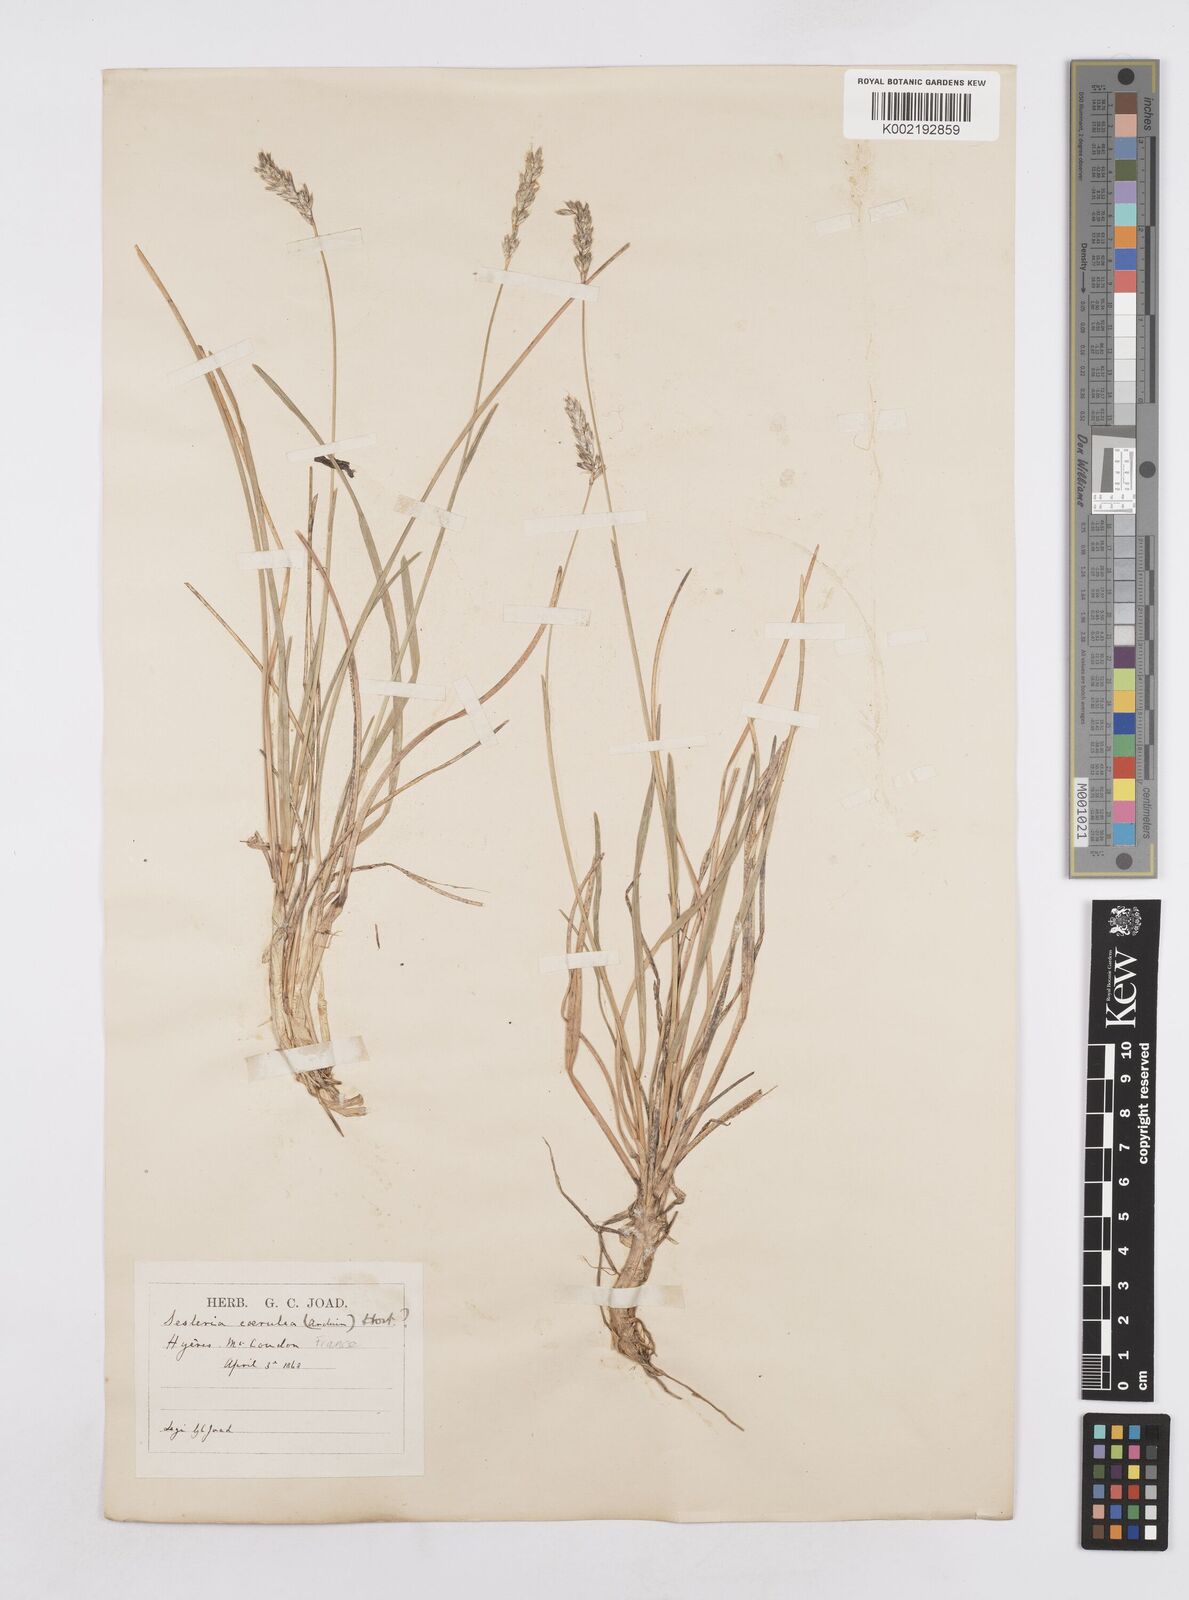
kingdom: Plantae
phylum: Tracheophyta
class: Liliopsida
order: Poales
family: Poaceae
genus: Sesleria
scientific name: Sesleria albicans
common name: Blue moor-grass
